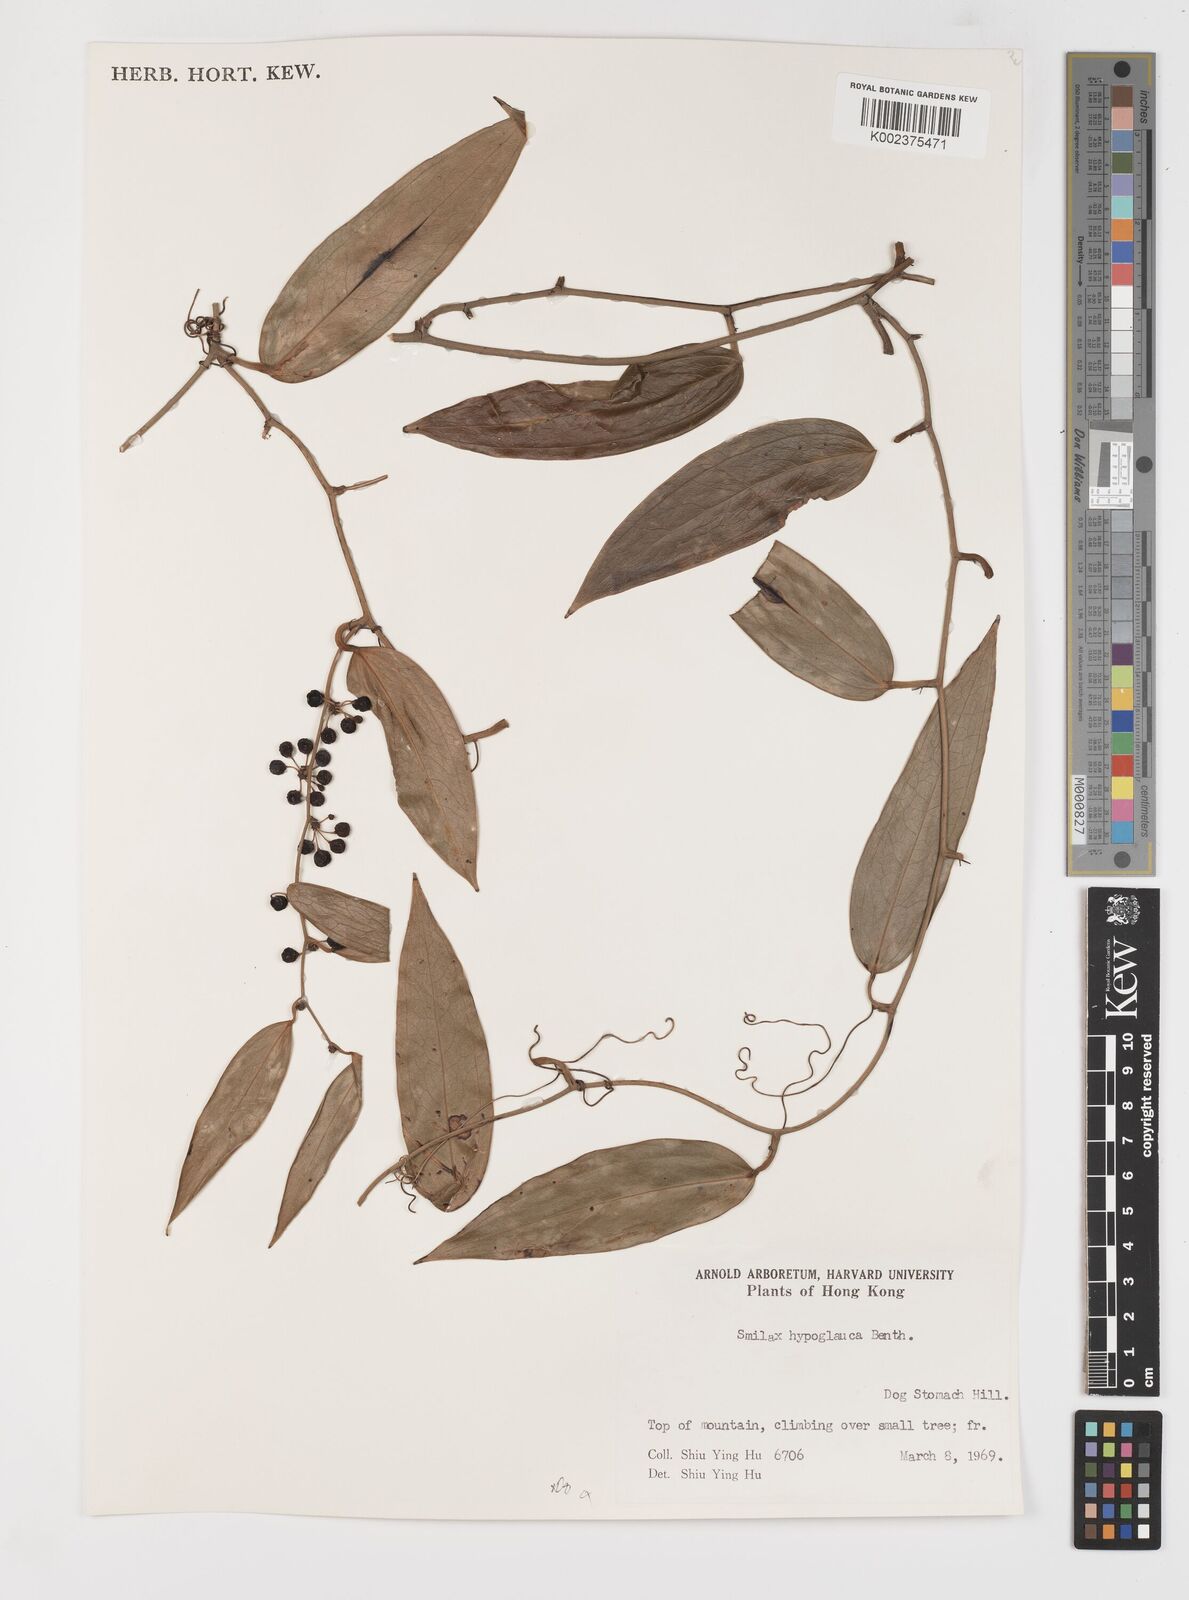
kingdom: Plantae
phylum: Tracheophyta
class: Liliopsida
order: Liliales
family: Smilacaceae
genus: Smilax
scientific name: Smilax hypoglauca
